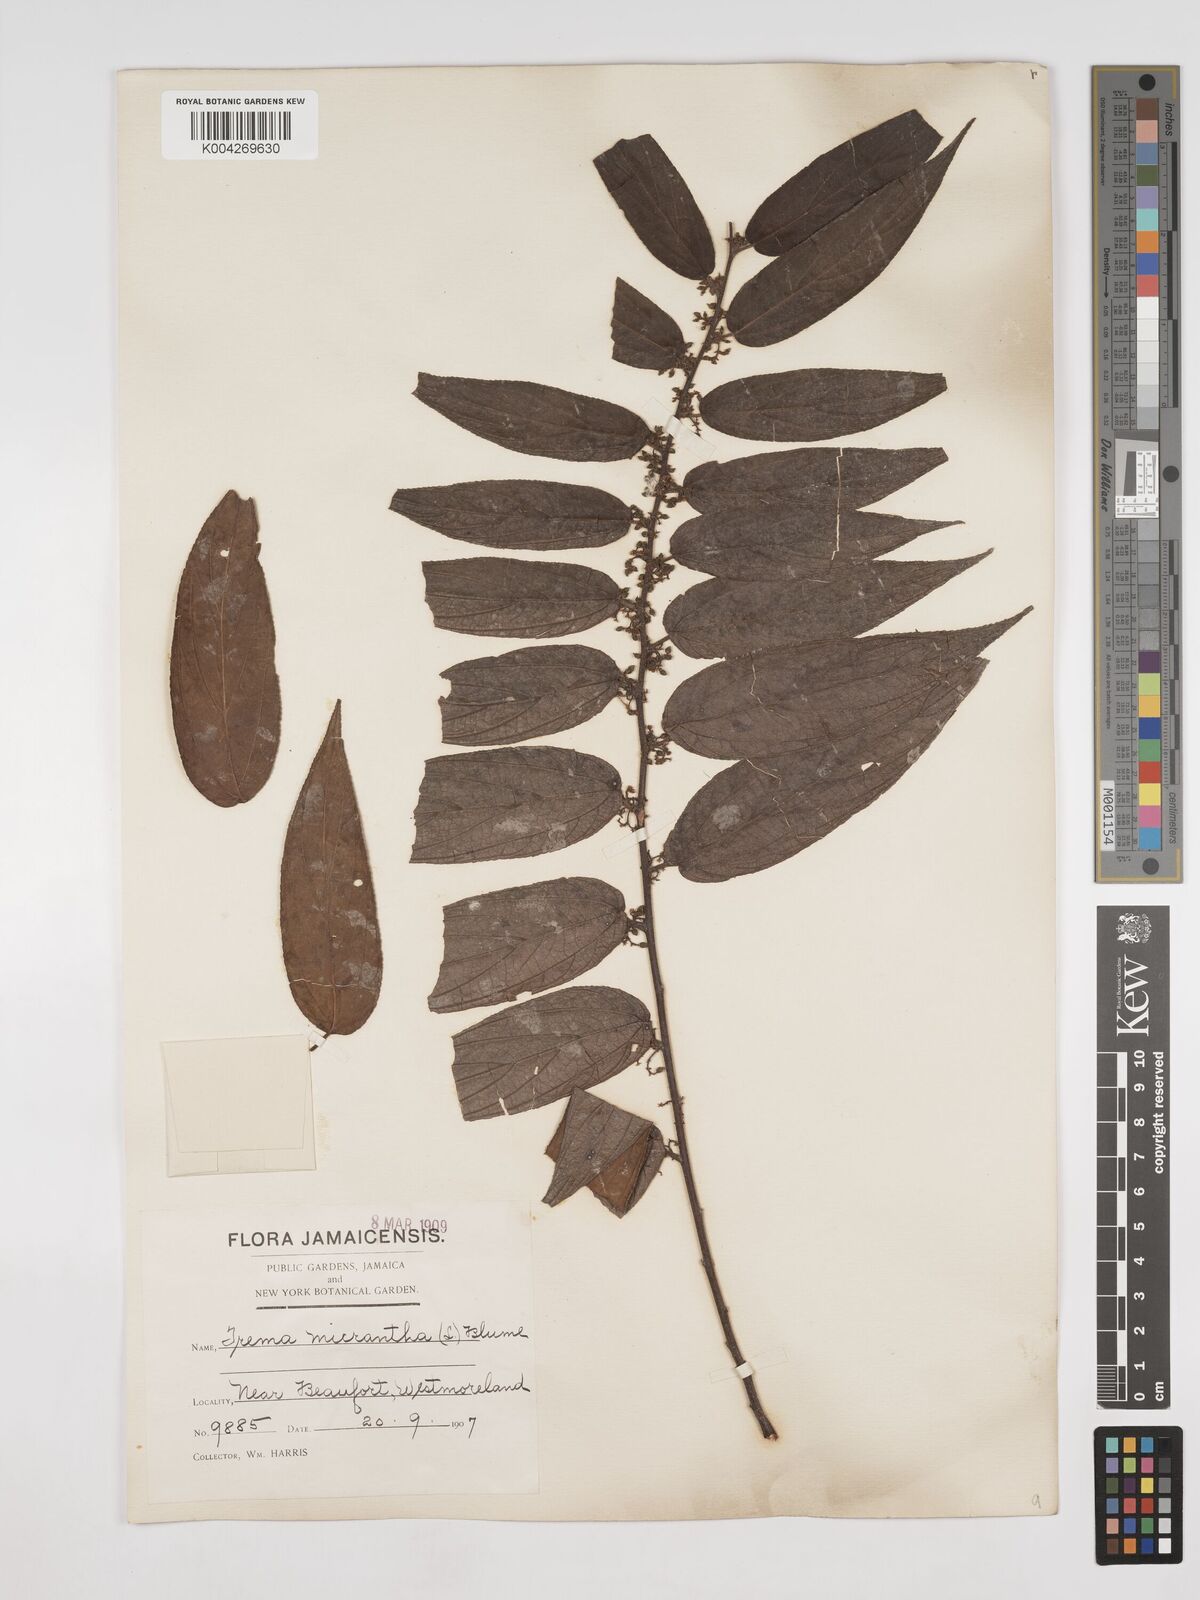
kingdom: Plantae
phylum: Tracheophyta
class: Magnoliopsida
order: Rosales
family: Cannabaceae
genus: Trema
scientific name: Trema micranthum
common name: Jamaican nettletree
